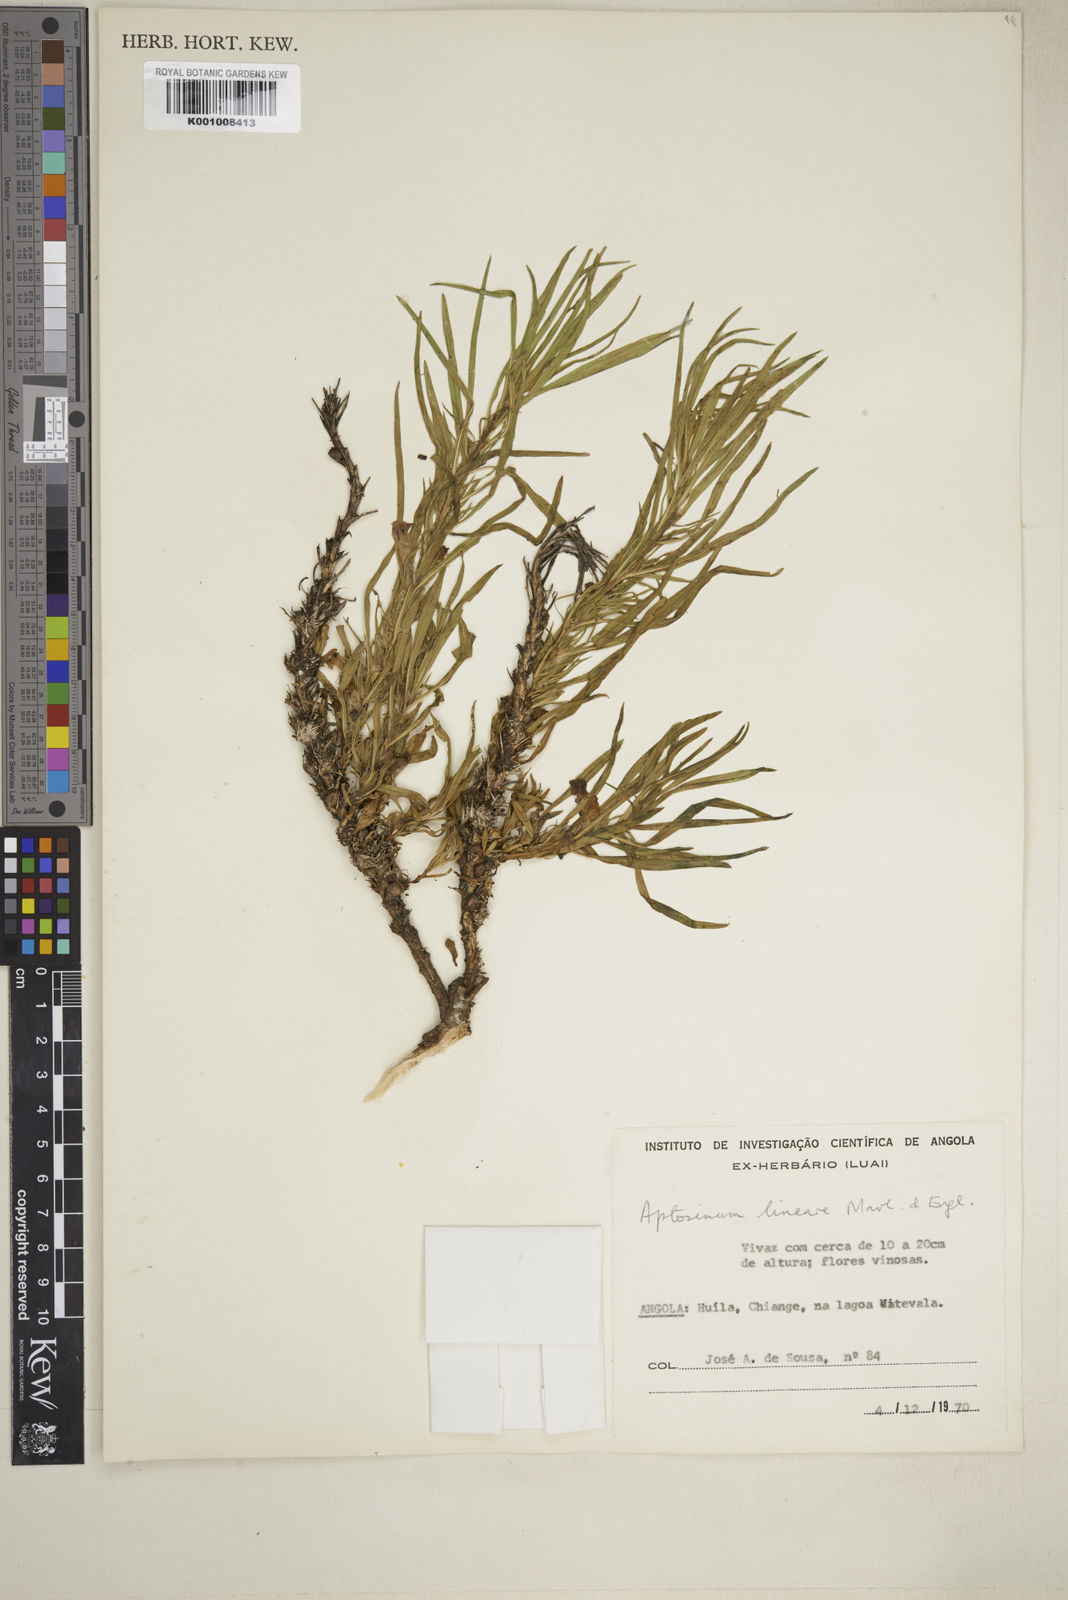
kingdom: Plantae
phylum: Tracheophyta
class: Magnoliopsida
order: Lamiales
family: Scrophulariaceae
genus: Aptosimum
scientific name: Aptosimum lineare
